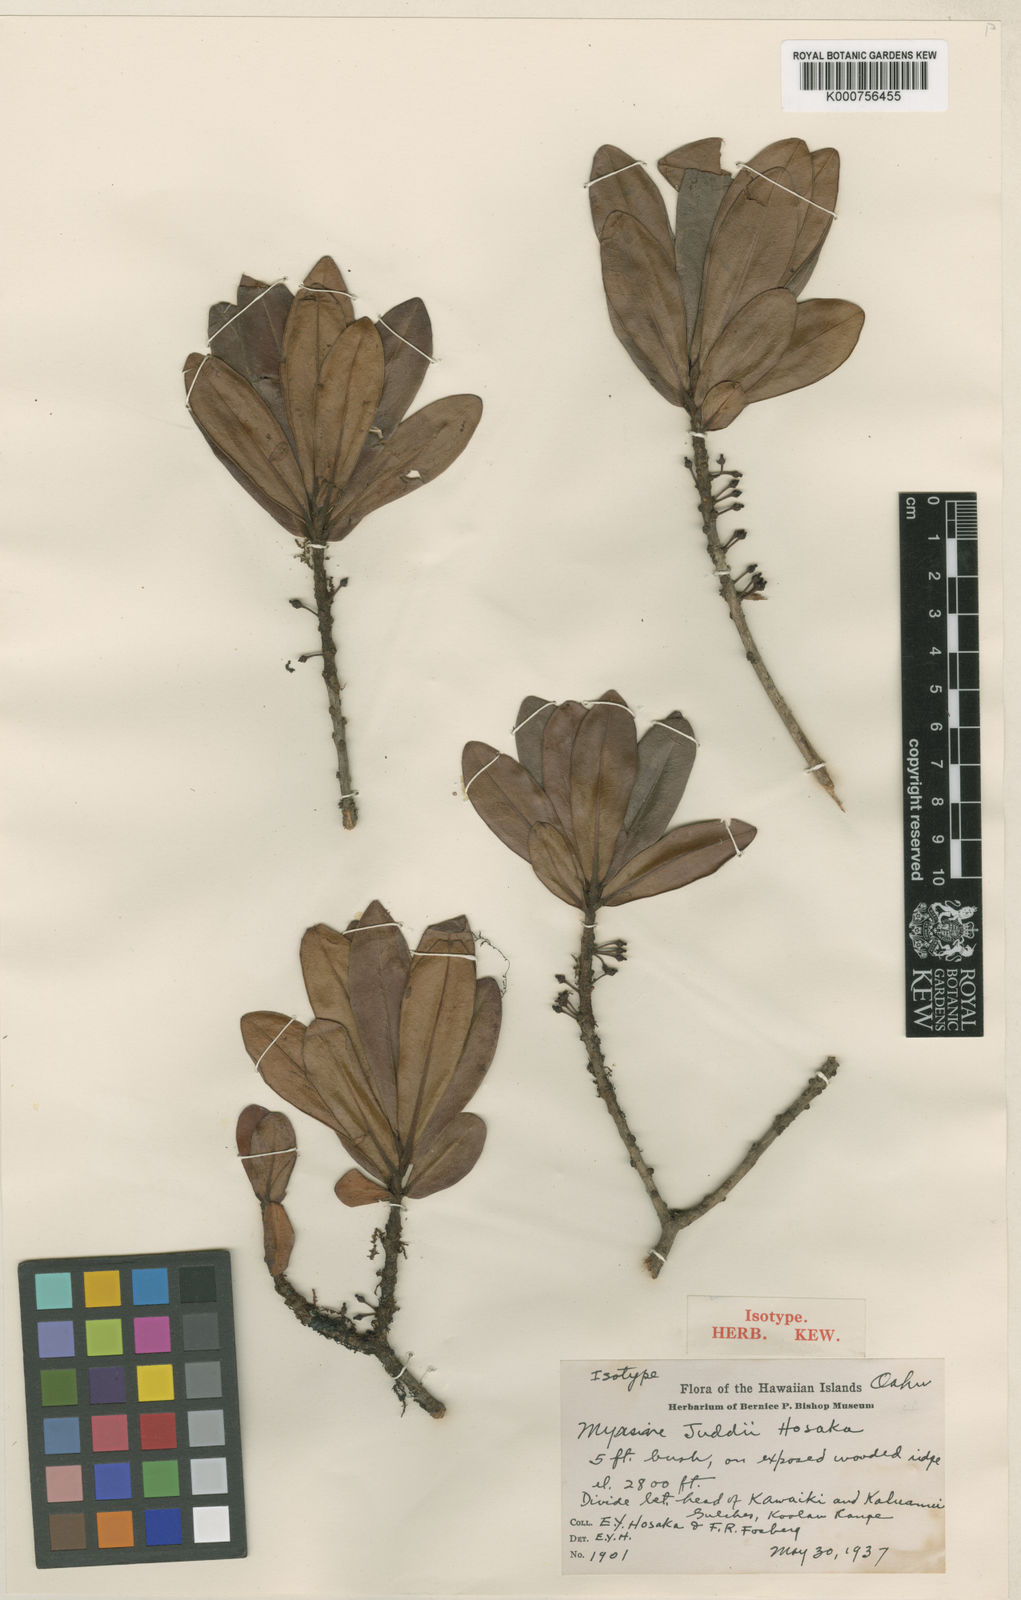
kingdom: Plantae
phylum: Tracheophyta
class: Magnoliopsida
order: Ericales
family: Primulaceae
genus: Myrsine
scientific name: Myrsine juddii
